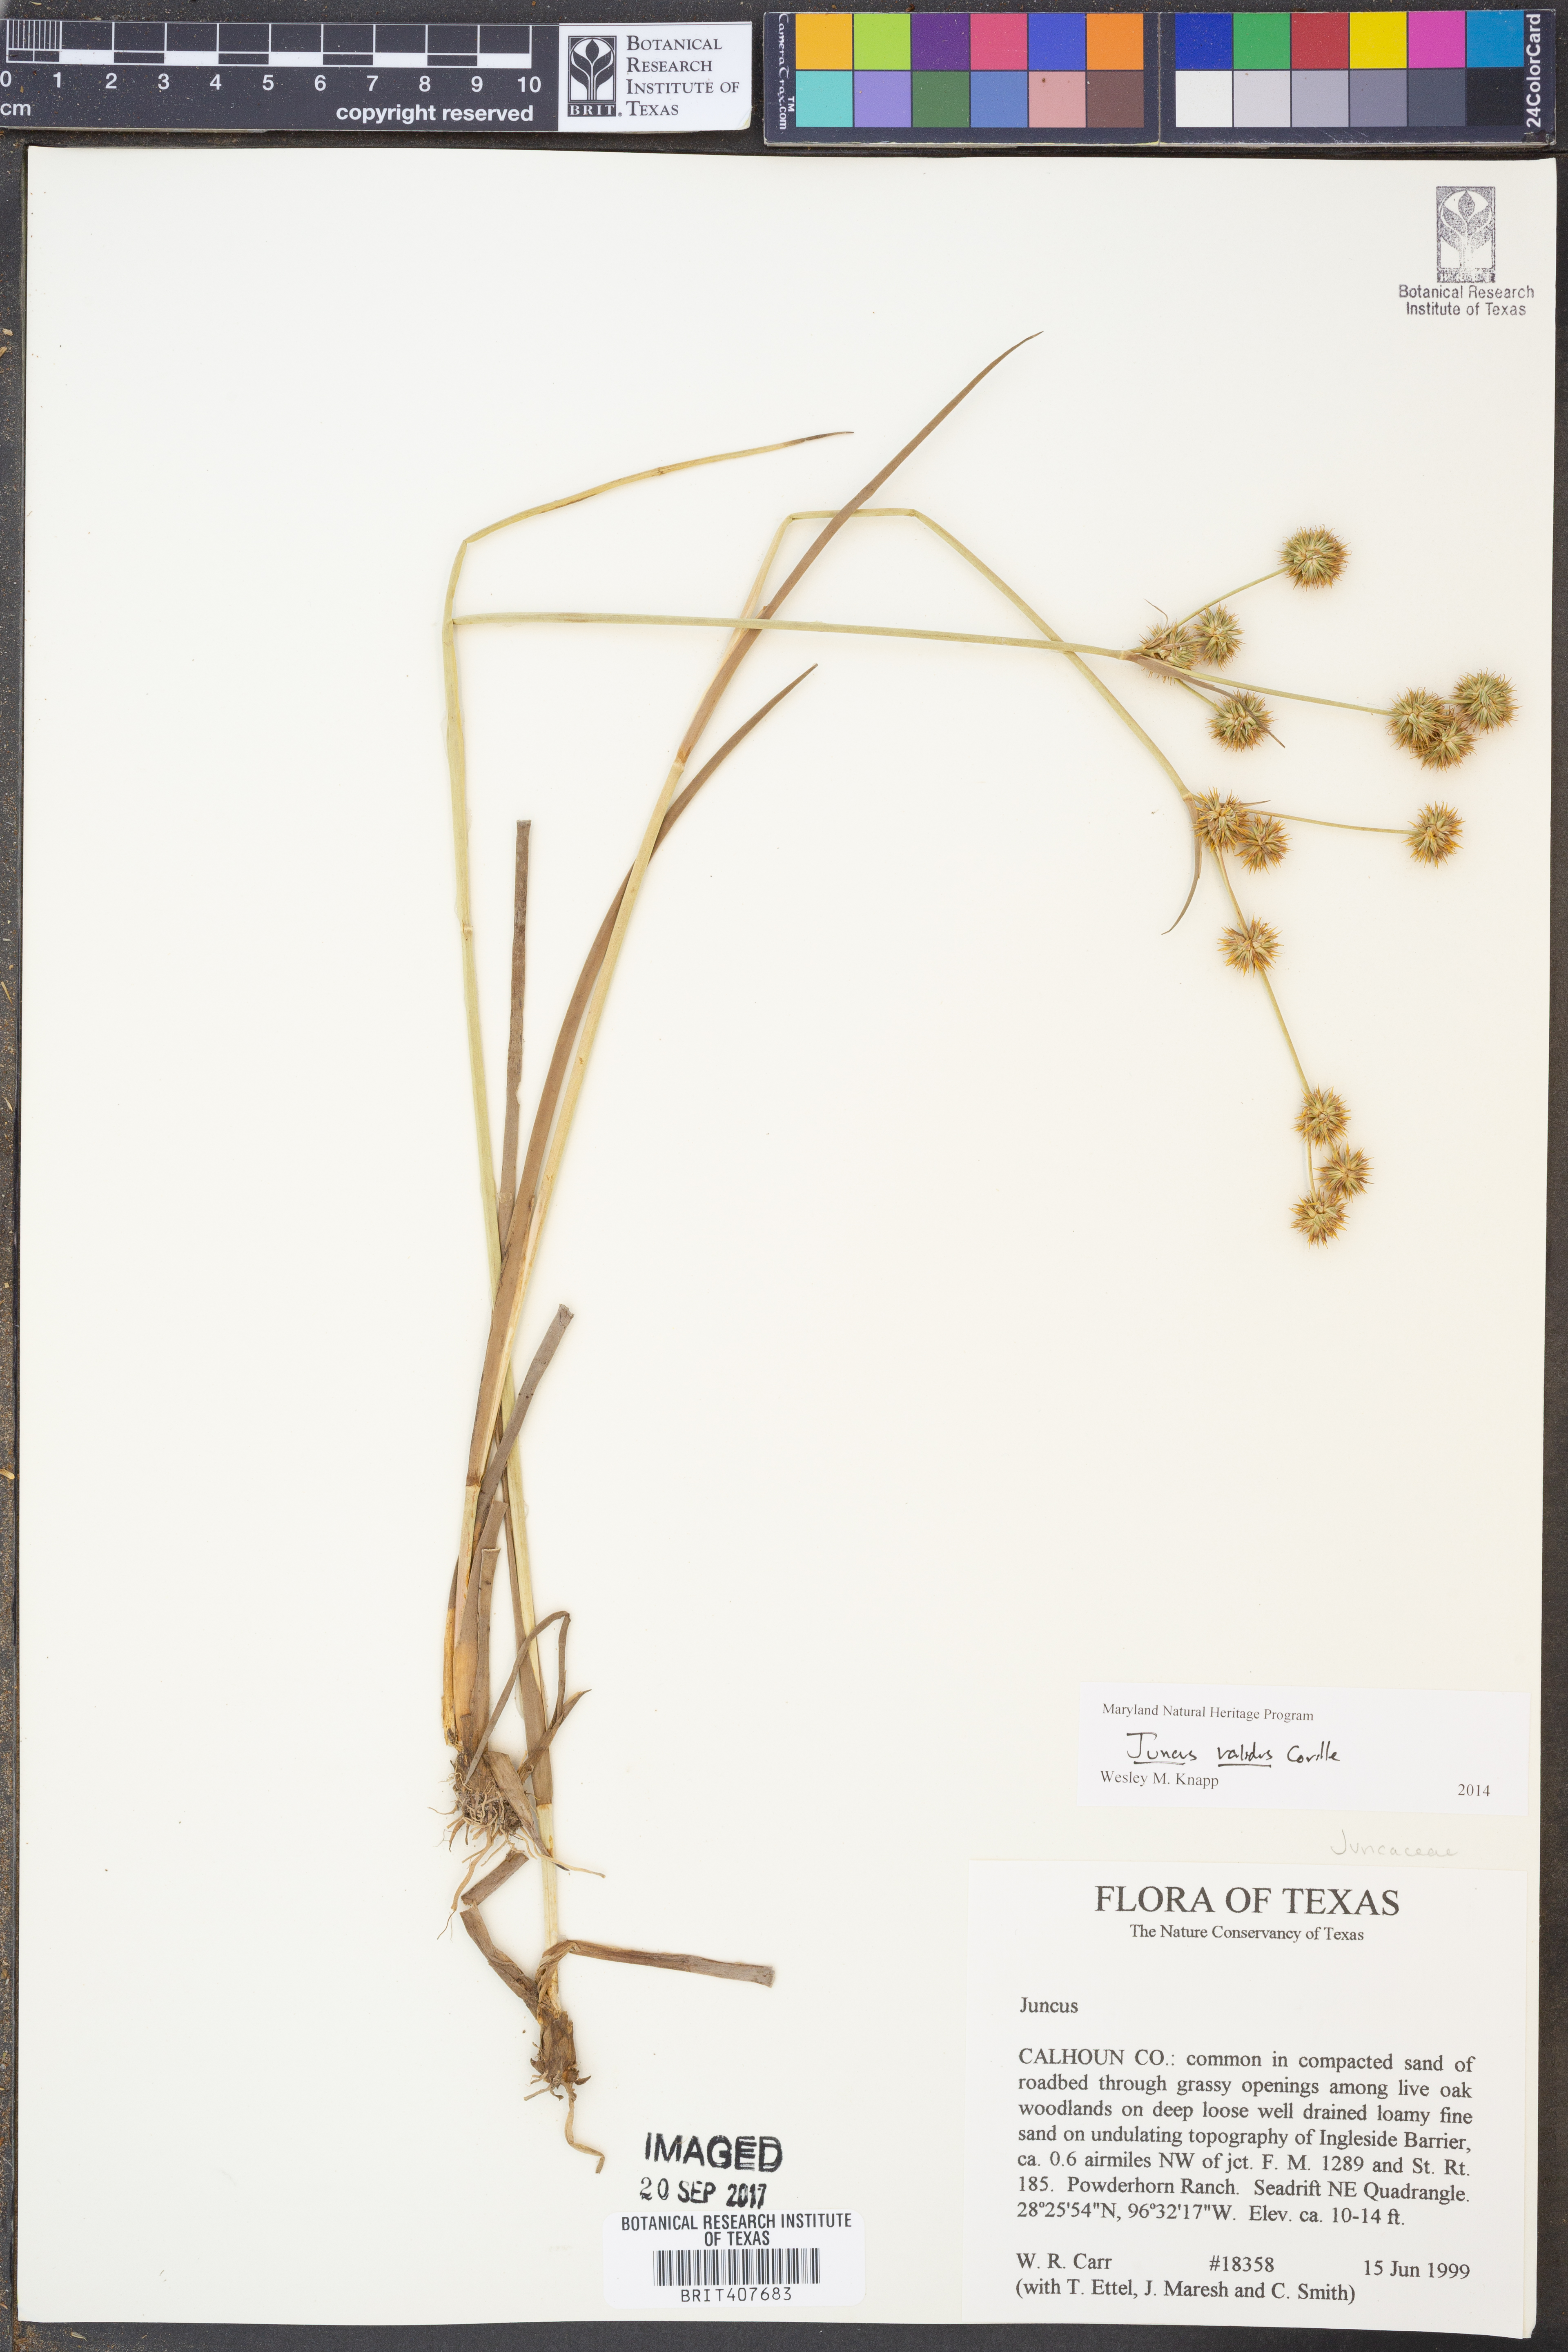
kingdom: Plantae
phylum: Tracheophyta
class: Liliopsida
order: Poales
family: Juncaceae
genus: Juncus
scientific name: Juncus validus
